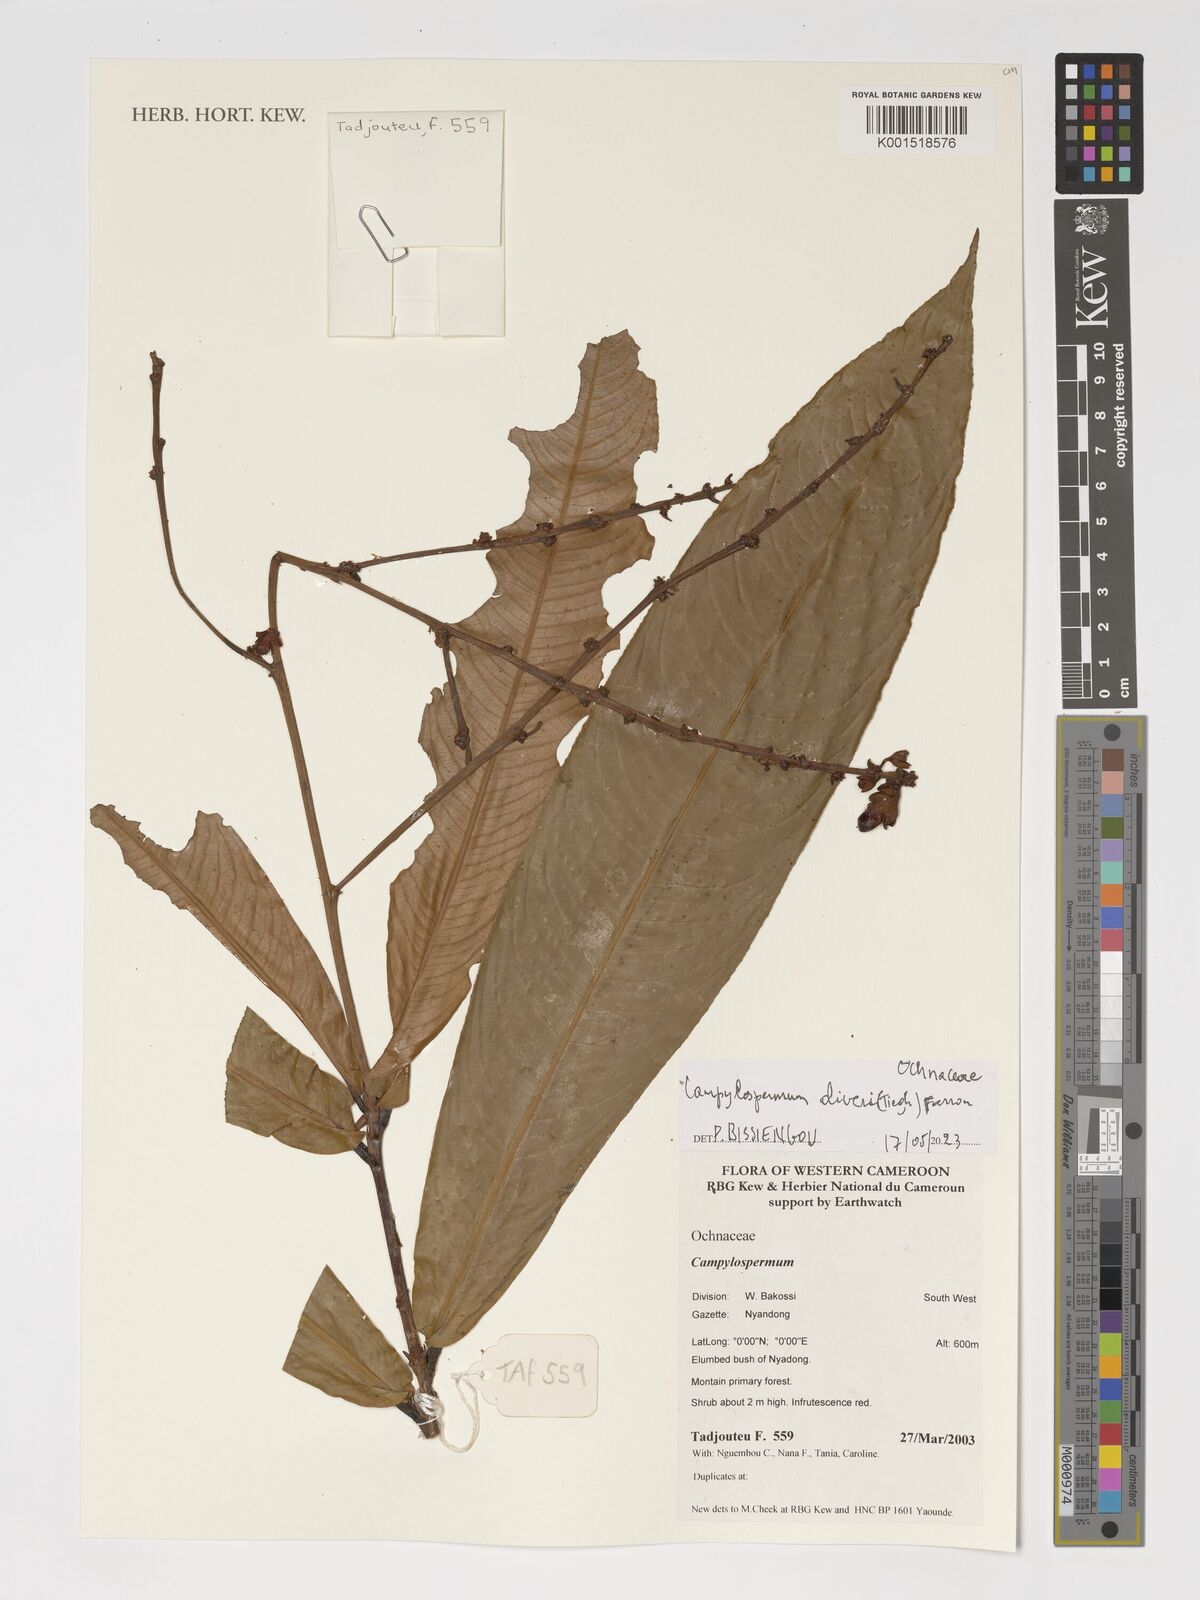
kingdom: Plantae
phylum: Tracheophyta
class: Magnoliopsida
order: Malpighiales
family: Ochnaceae
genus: Campylospermum
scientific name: Campylospermum oliveri
